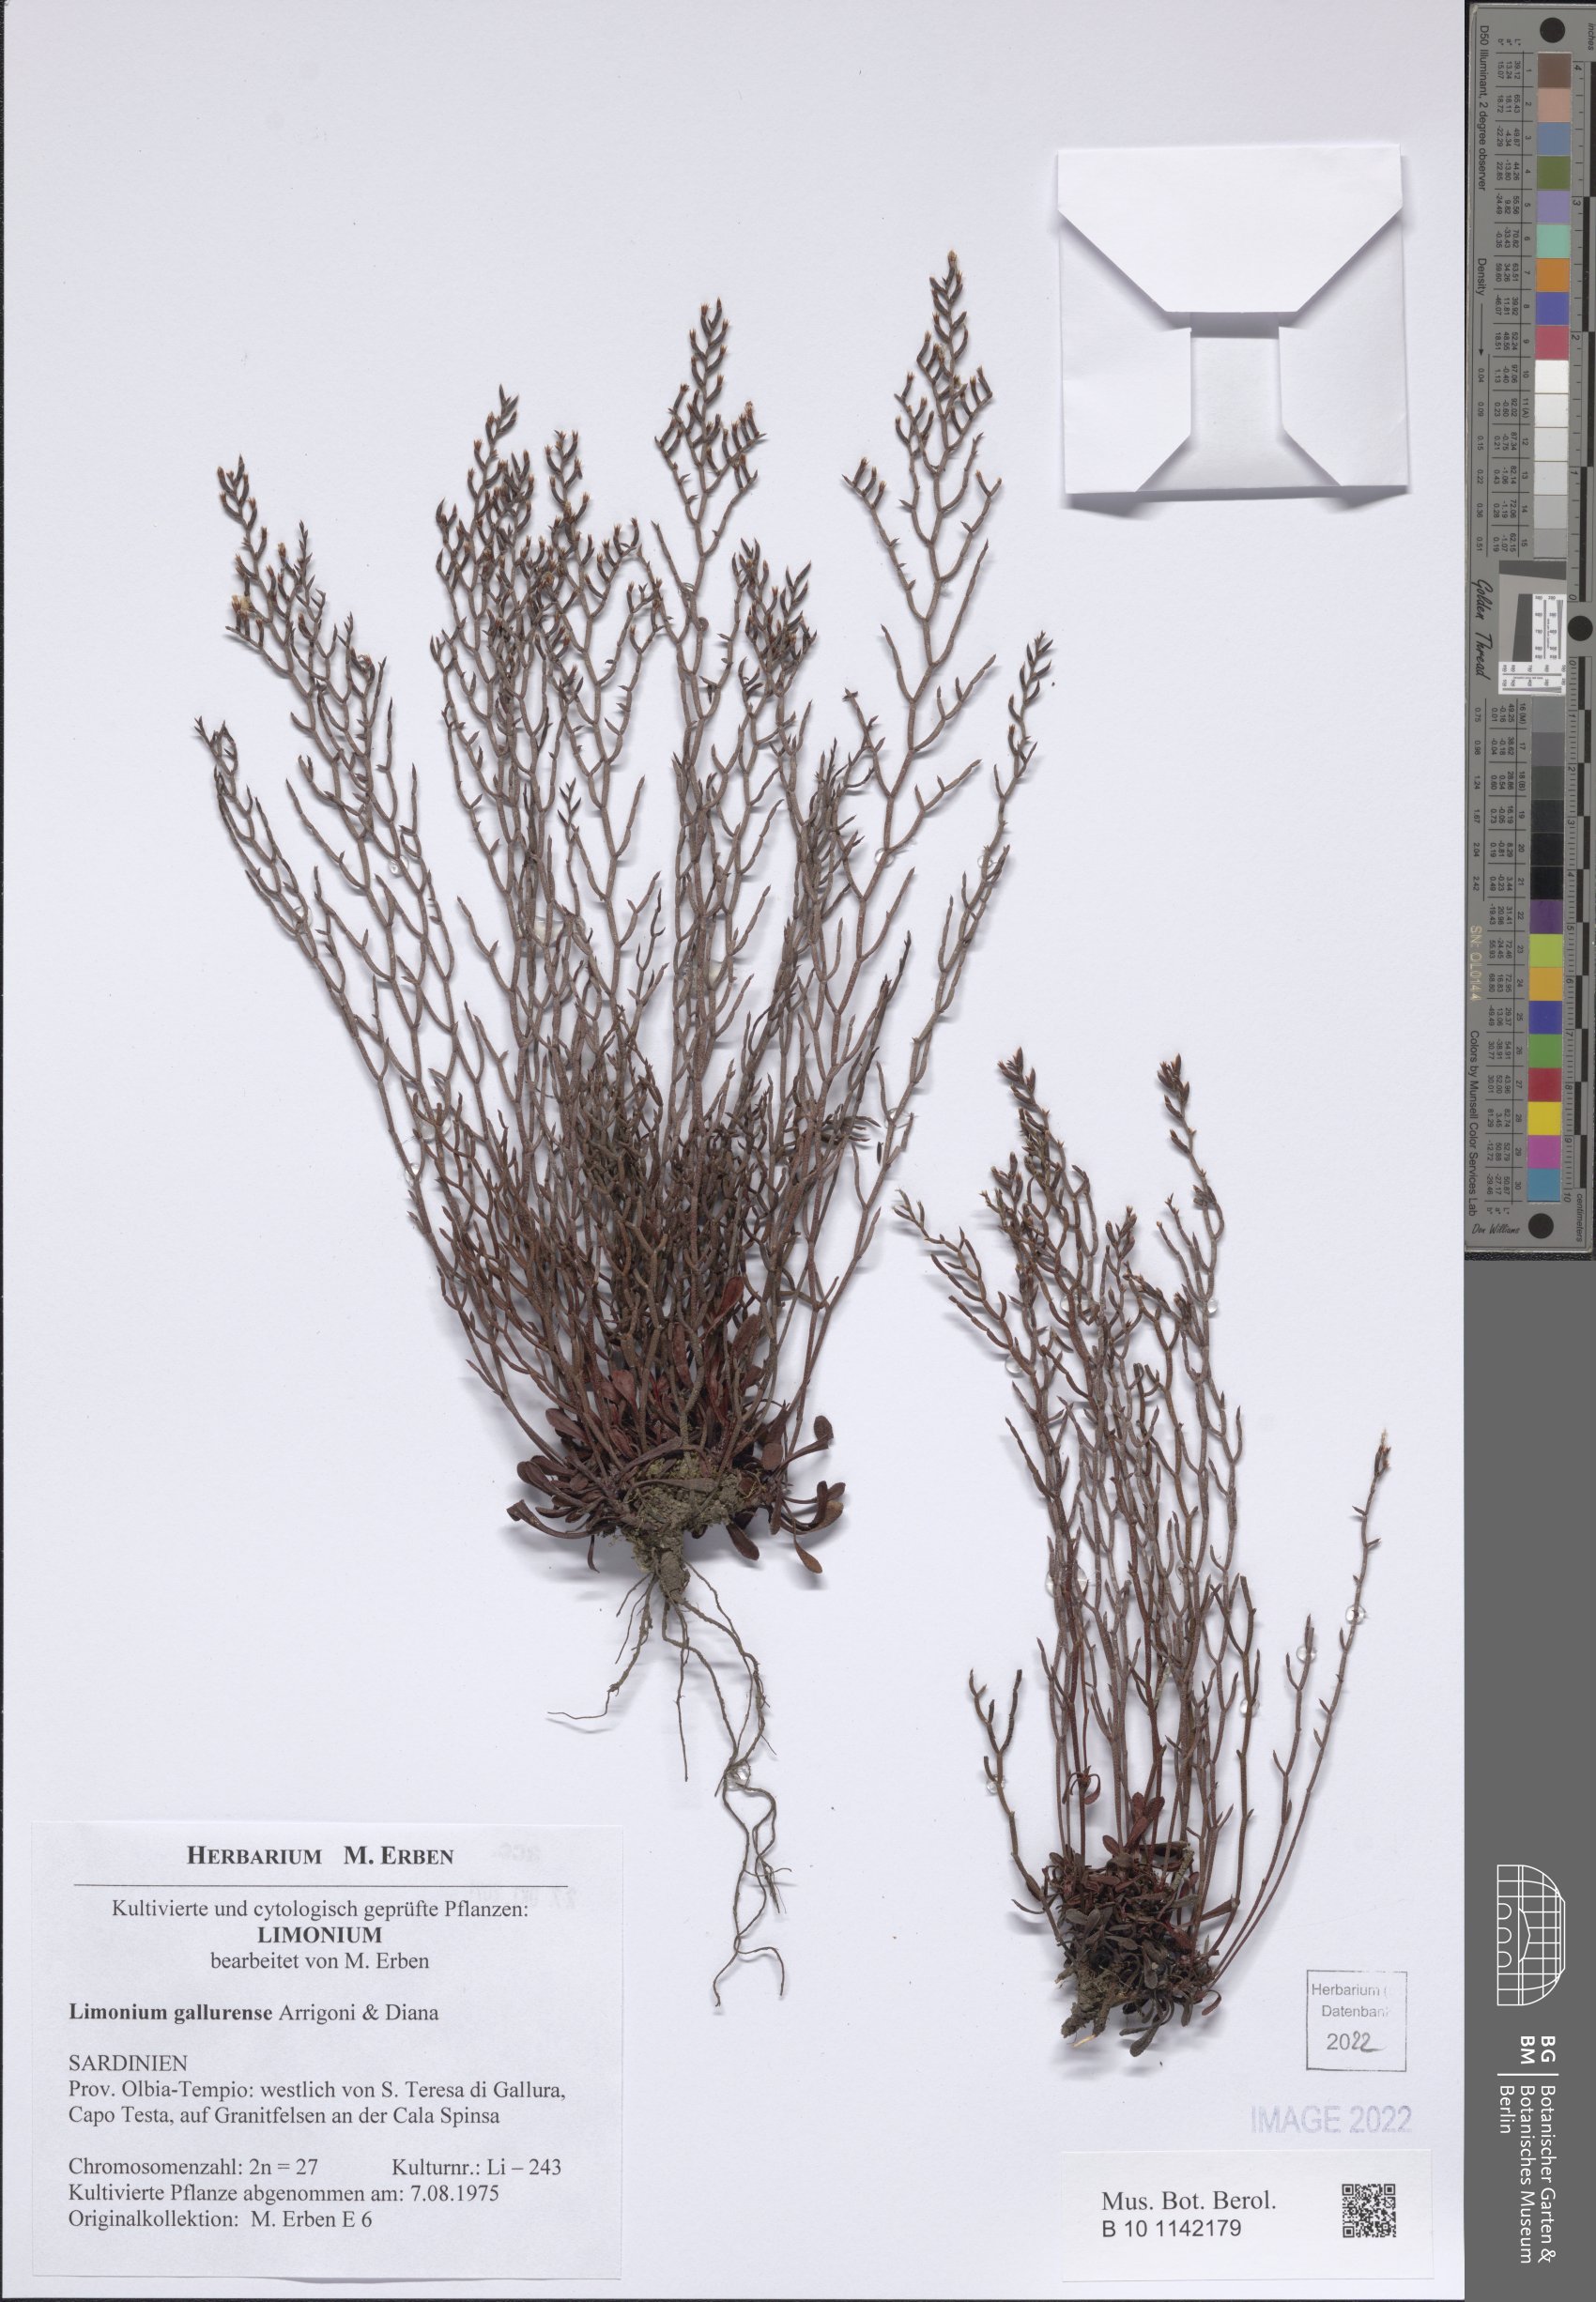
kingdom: Plantae
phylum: Tracheophyta
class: Magnoliopsida
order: Caryophyllales
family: Plumbaginaceae
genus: Limonium
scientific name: Limonium gallurense
